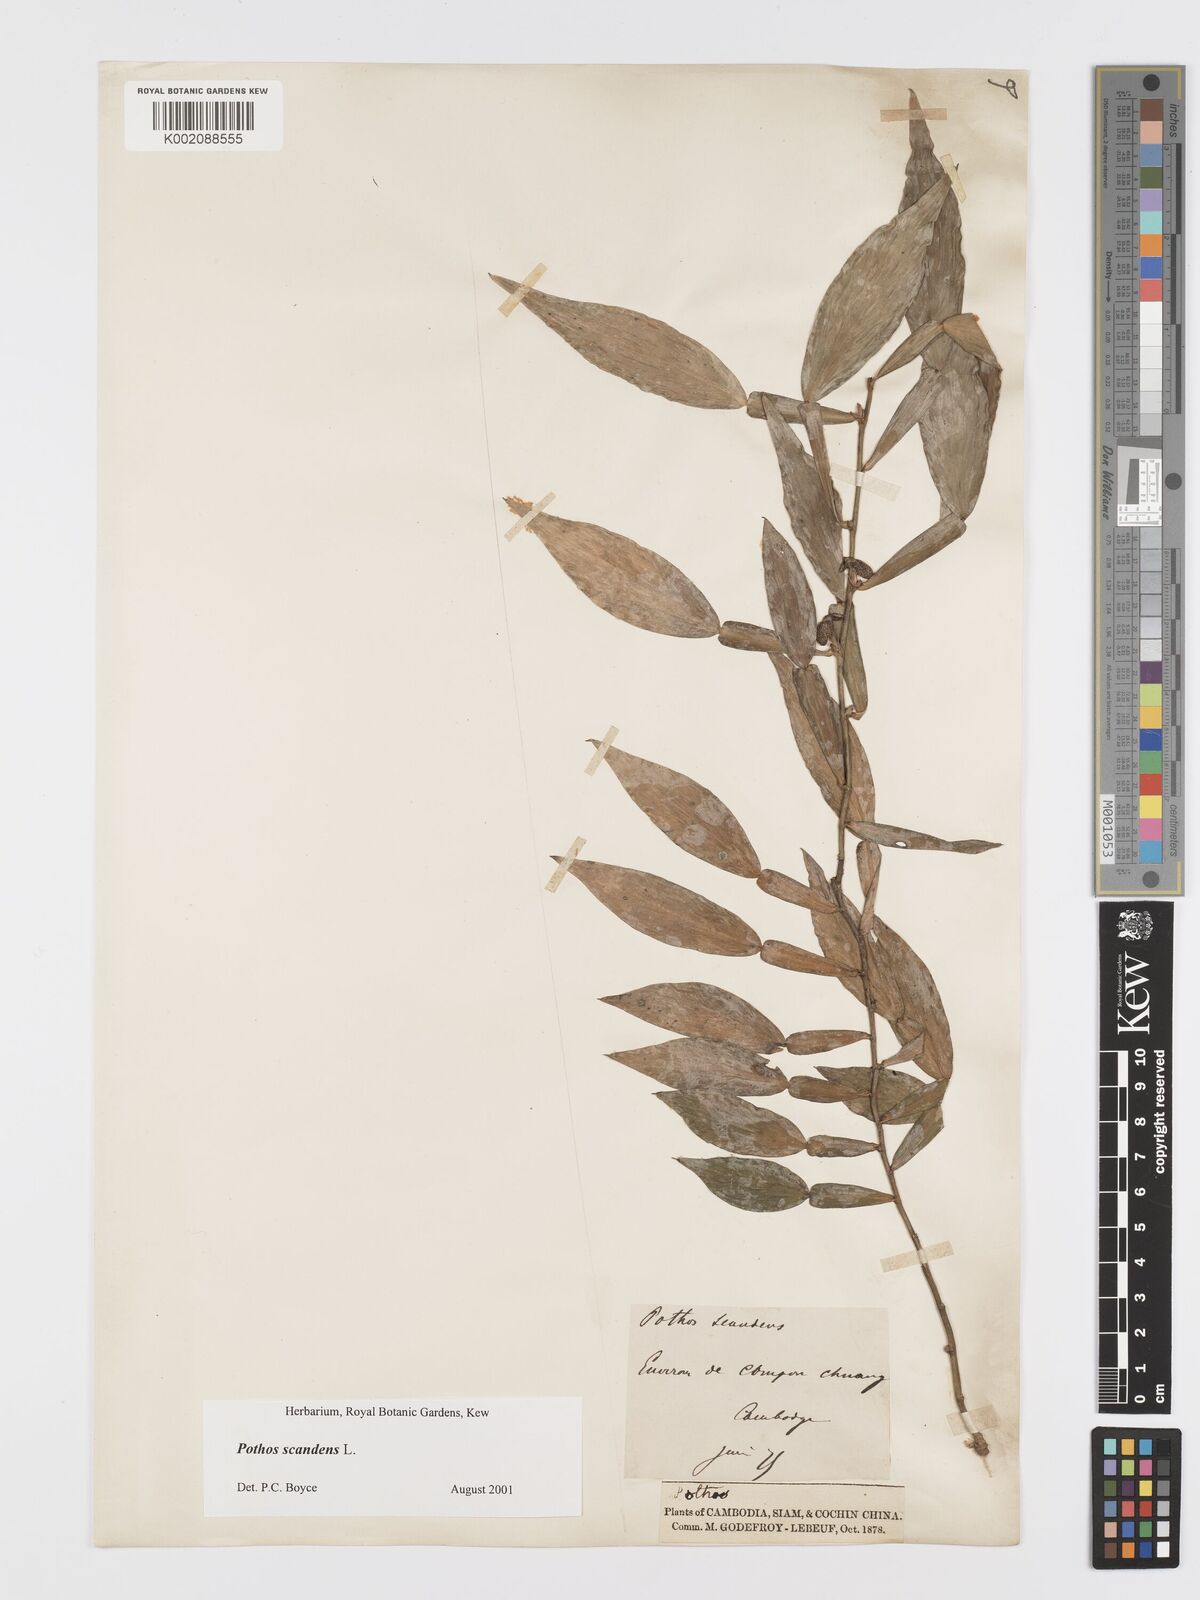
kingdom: Plantae
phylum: Tracheophyta
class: Liliopsida
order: Alismatales
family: Araceae
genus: Pothos
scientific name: Pothos scandens
